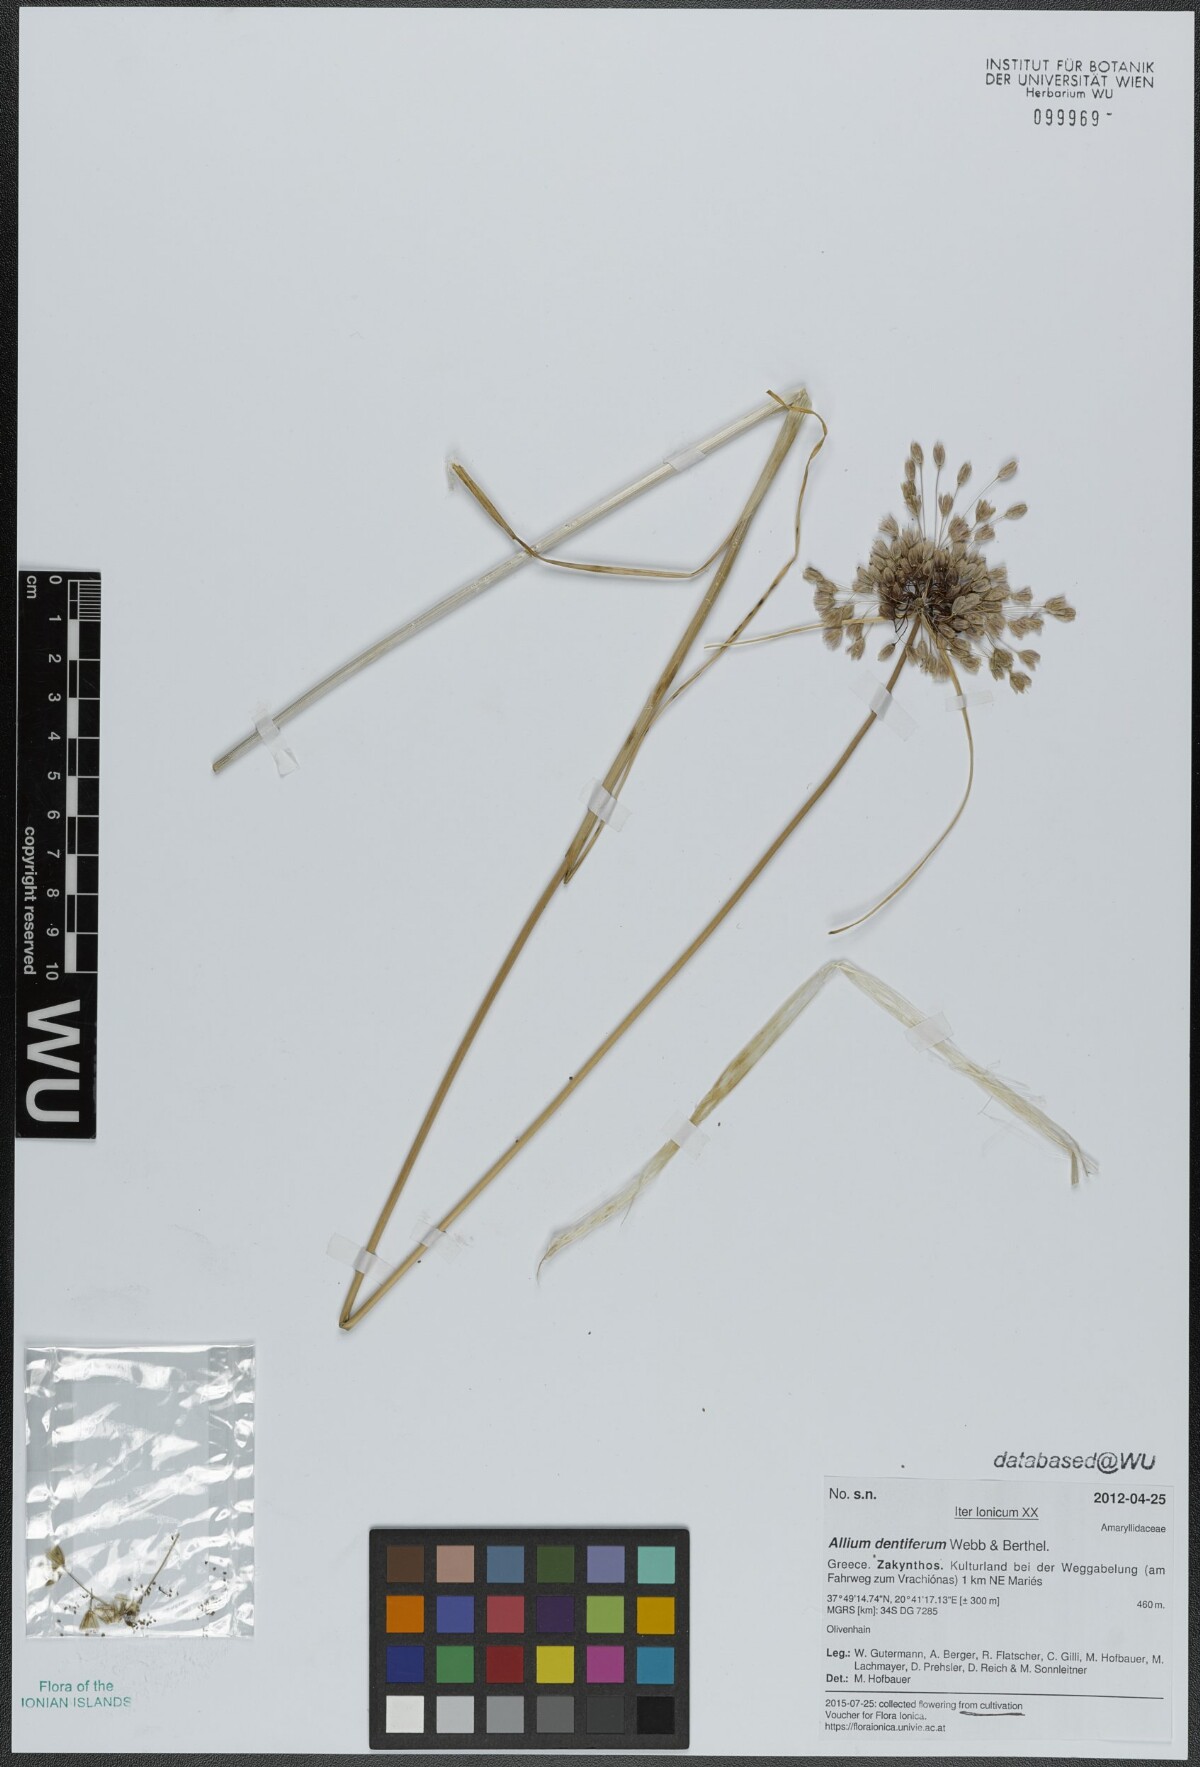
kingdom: Plantae
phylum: Tracheophyta
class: Liliopsida
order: Asparagales
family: Amaryllidaceae
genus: Allium
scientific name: Allium longispathum
